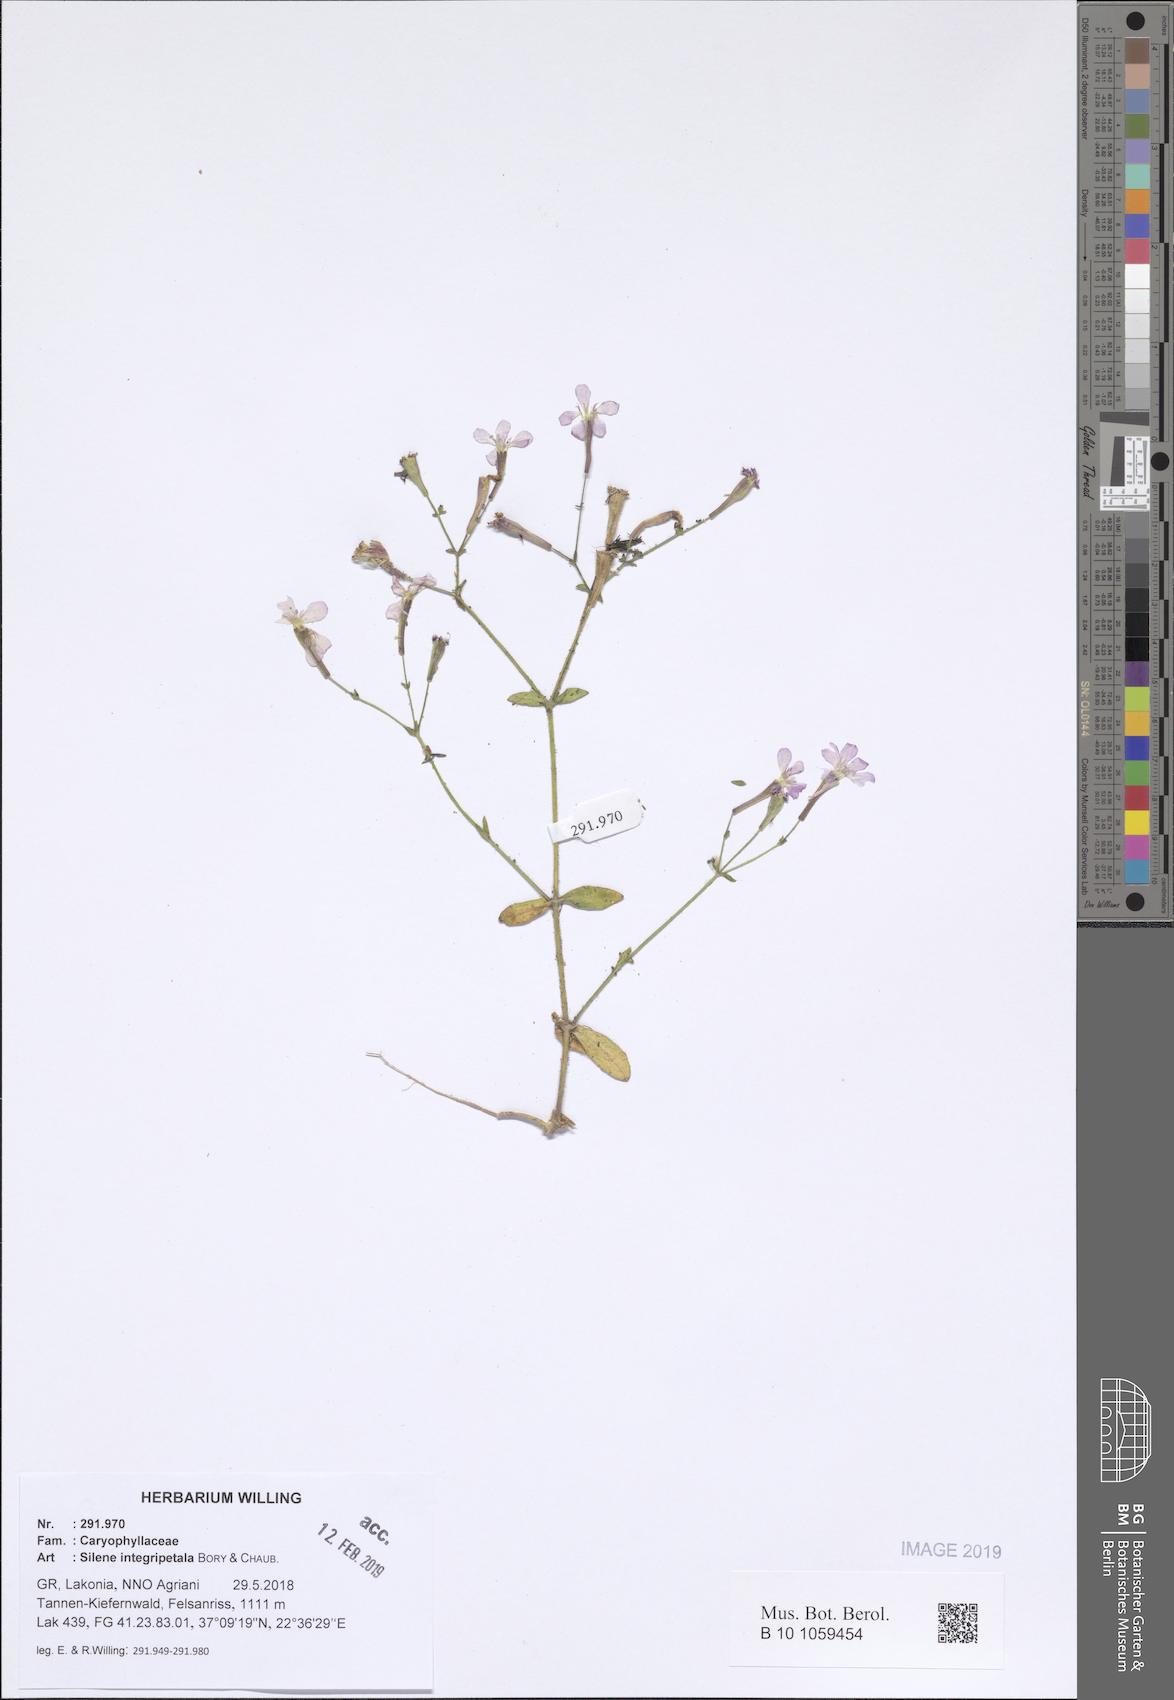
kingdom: Plantae
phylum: Tracheophyta
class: Magnoliopsida
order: Caryophyllales
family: Caryophyllaceae
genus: Silene
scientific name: Silene integripetala
